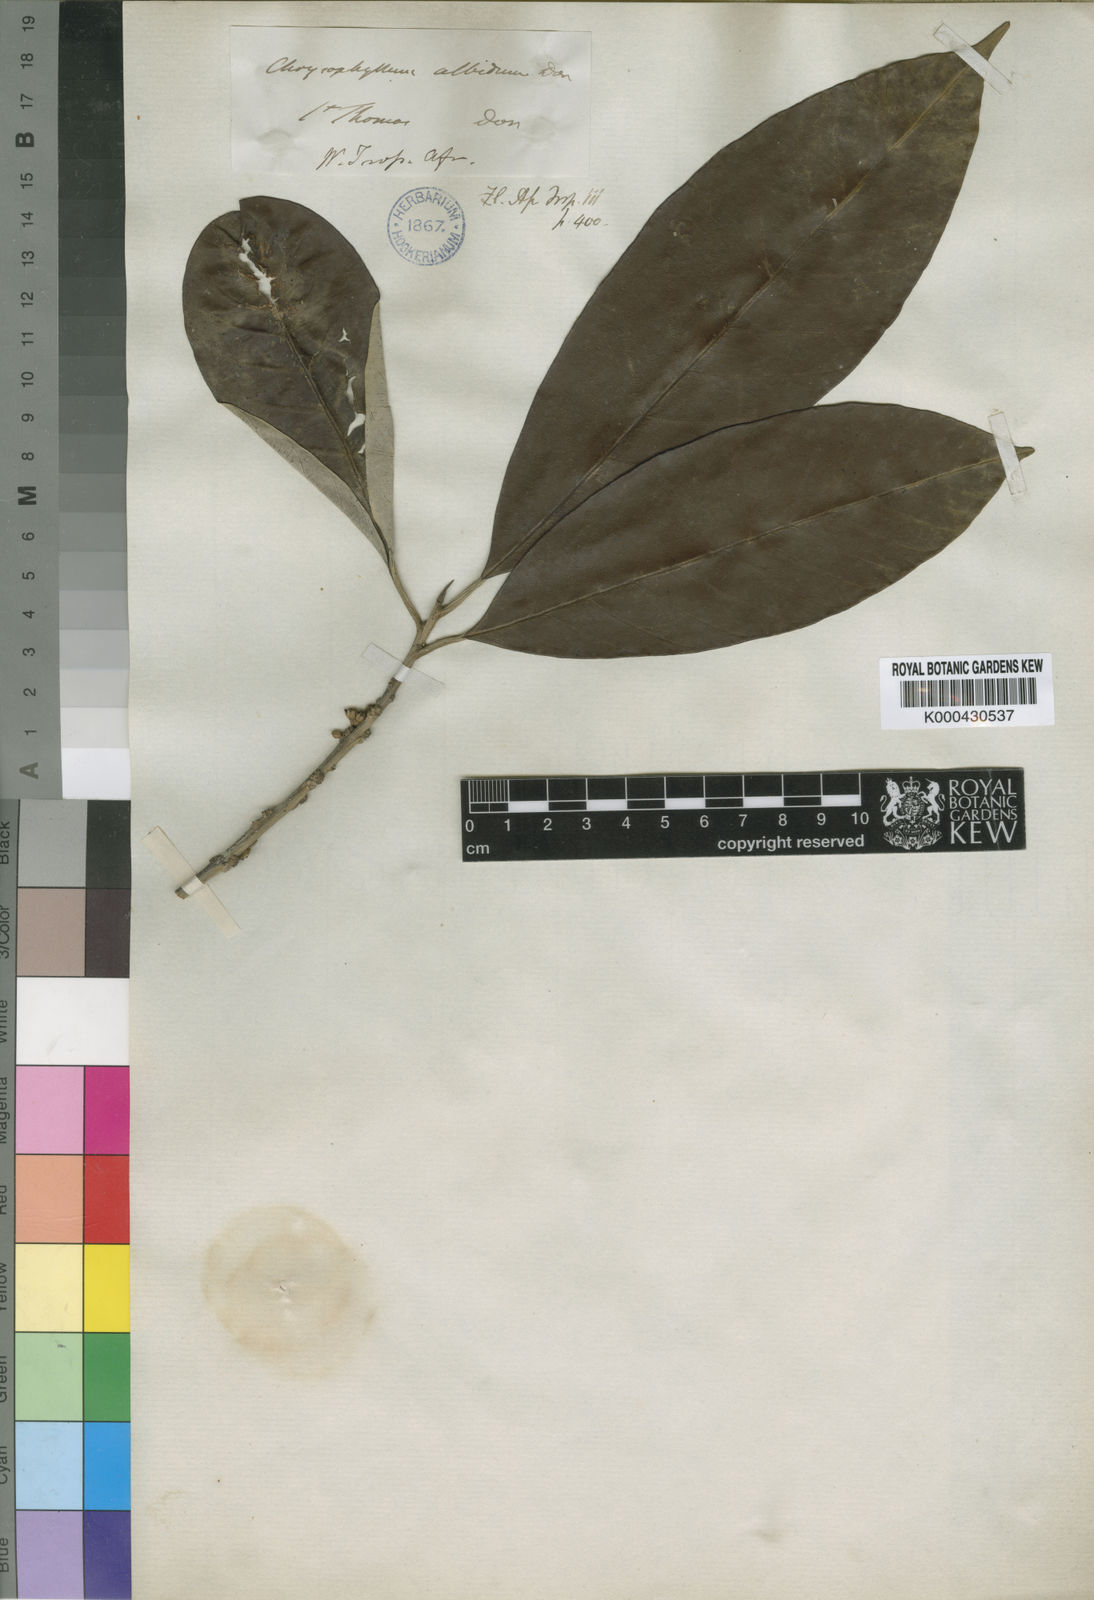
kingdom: Plantae
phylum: Tracheophyta
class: Magnoliopsida
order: Ericales
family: Sapotaceae
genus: Gambeya
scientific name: Gambeya albida
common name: White star apple
